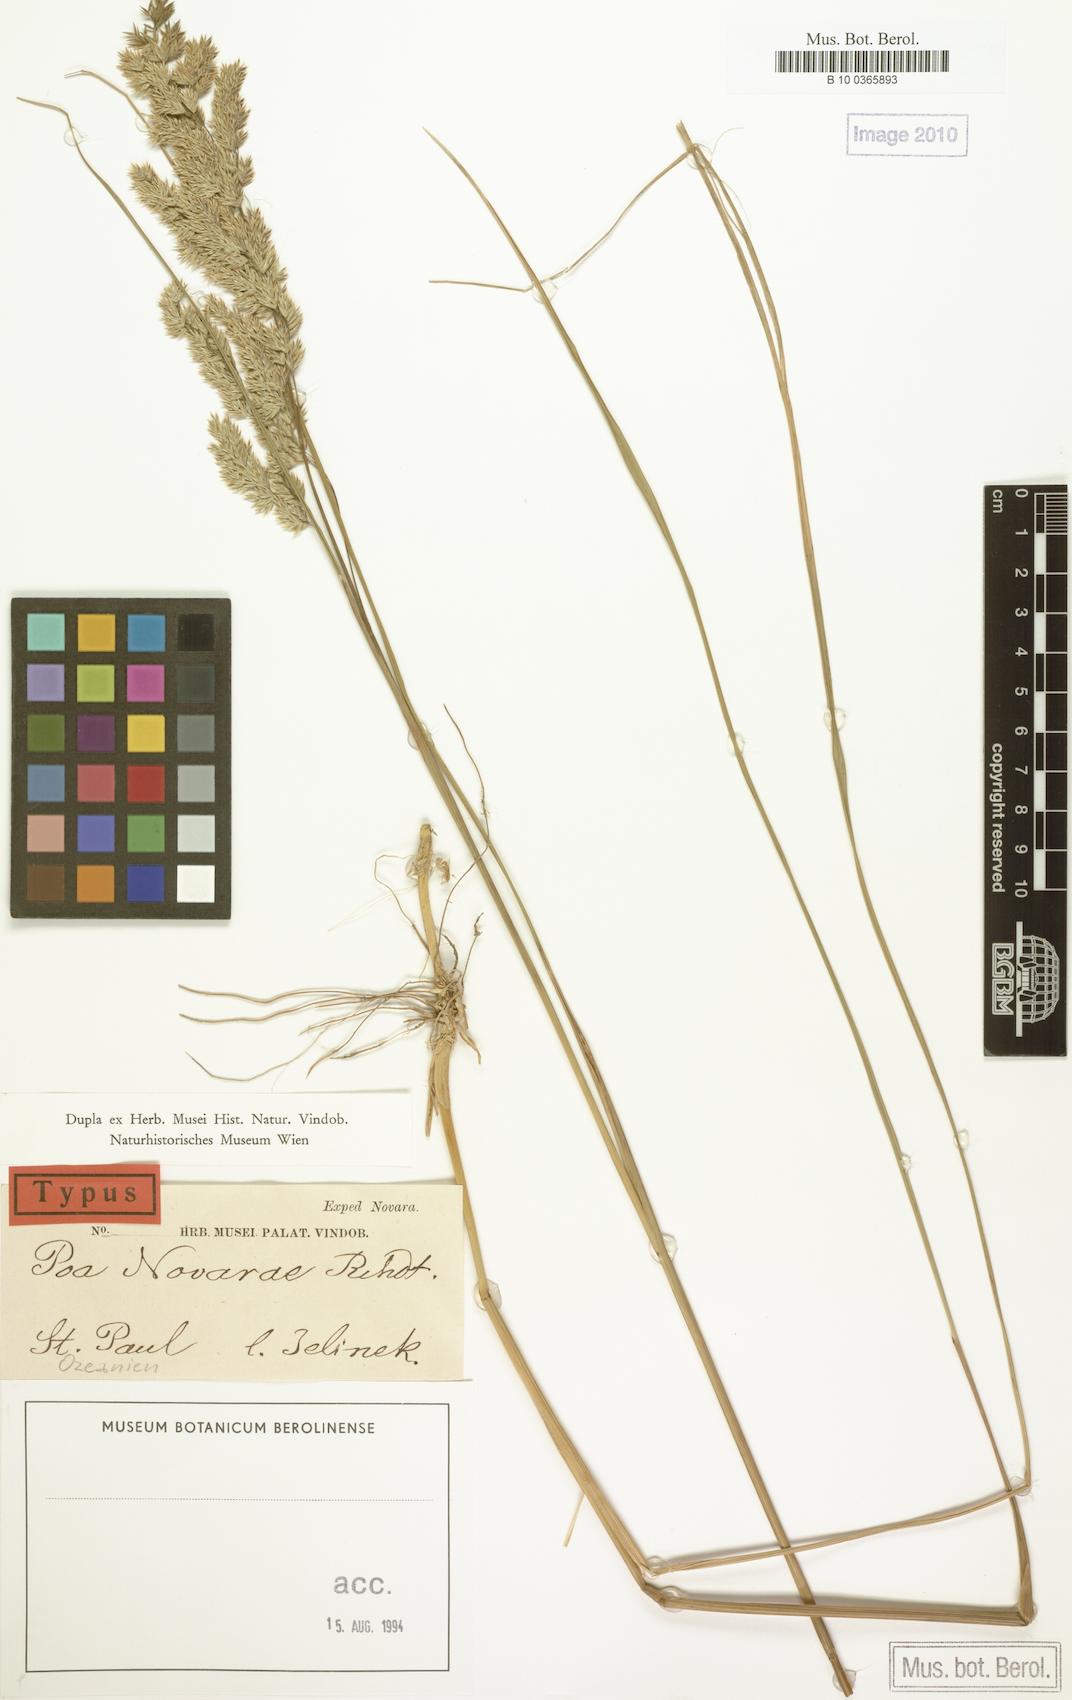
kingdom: Plantae
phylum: Tracheophyta
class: Liliopsida
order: Poales
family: Poaceae
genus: Poa
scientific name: Poa novarae
